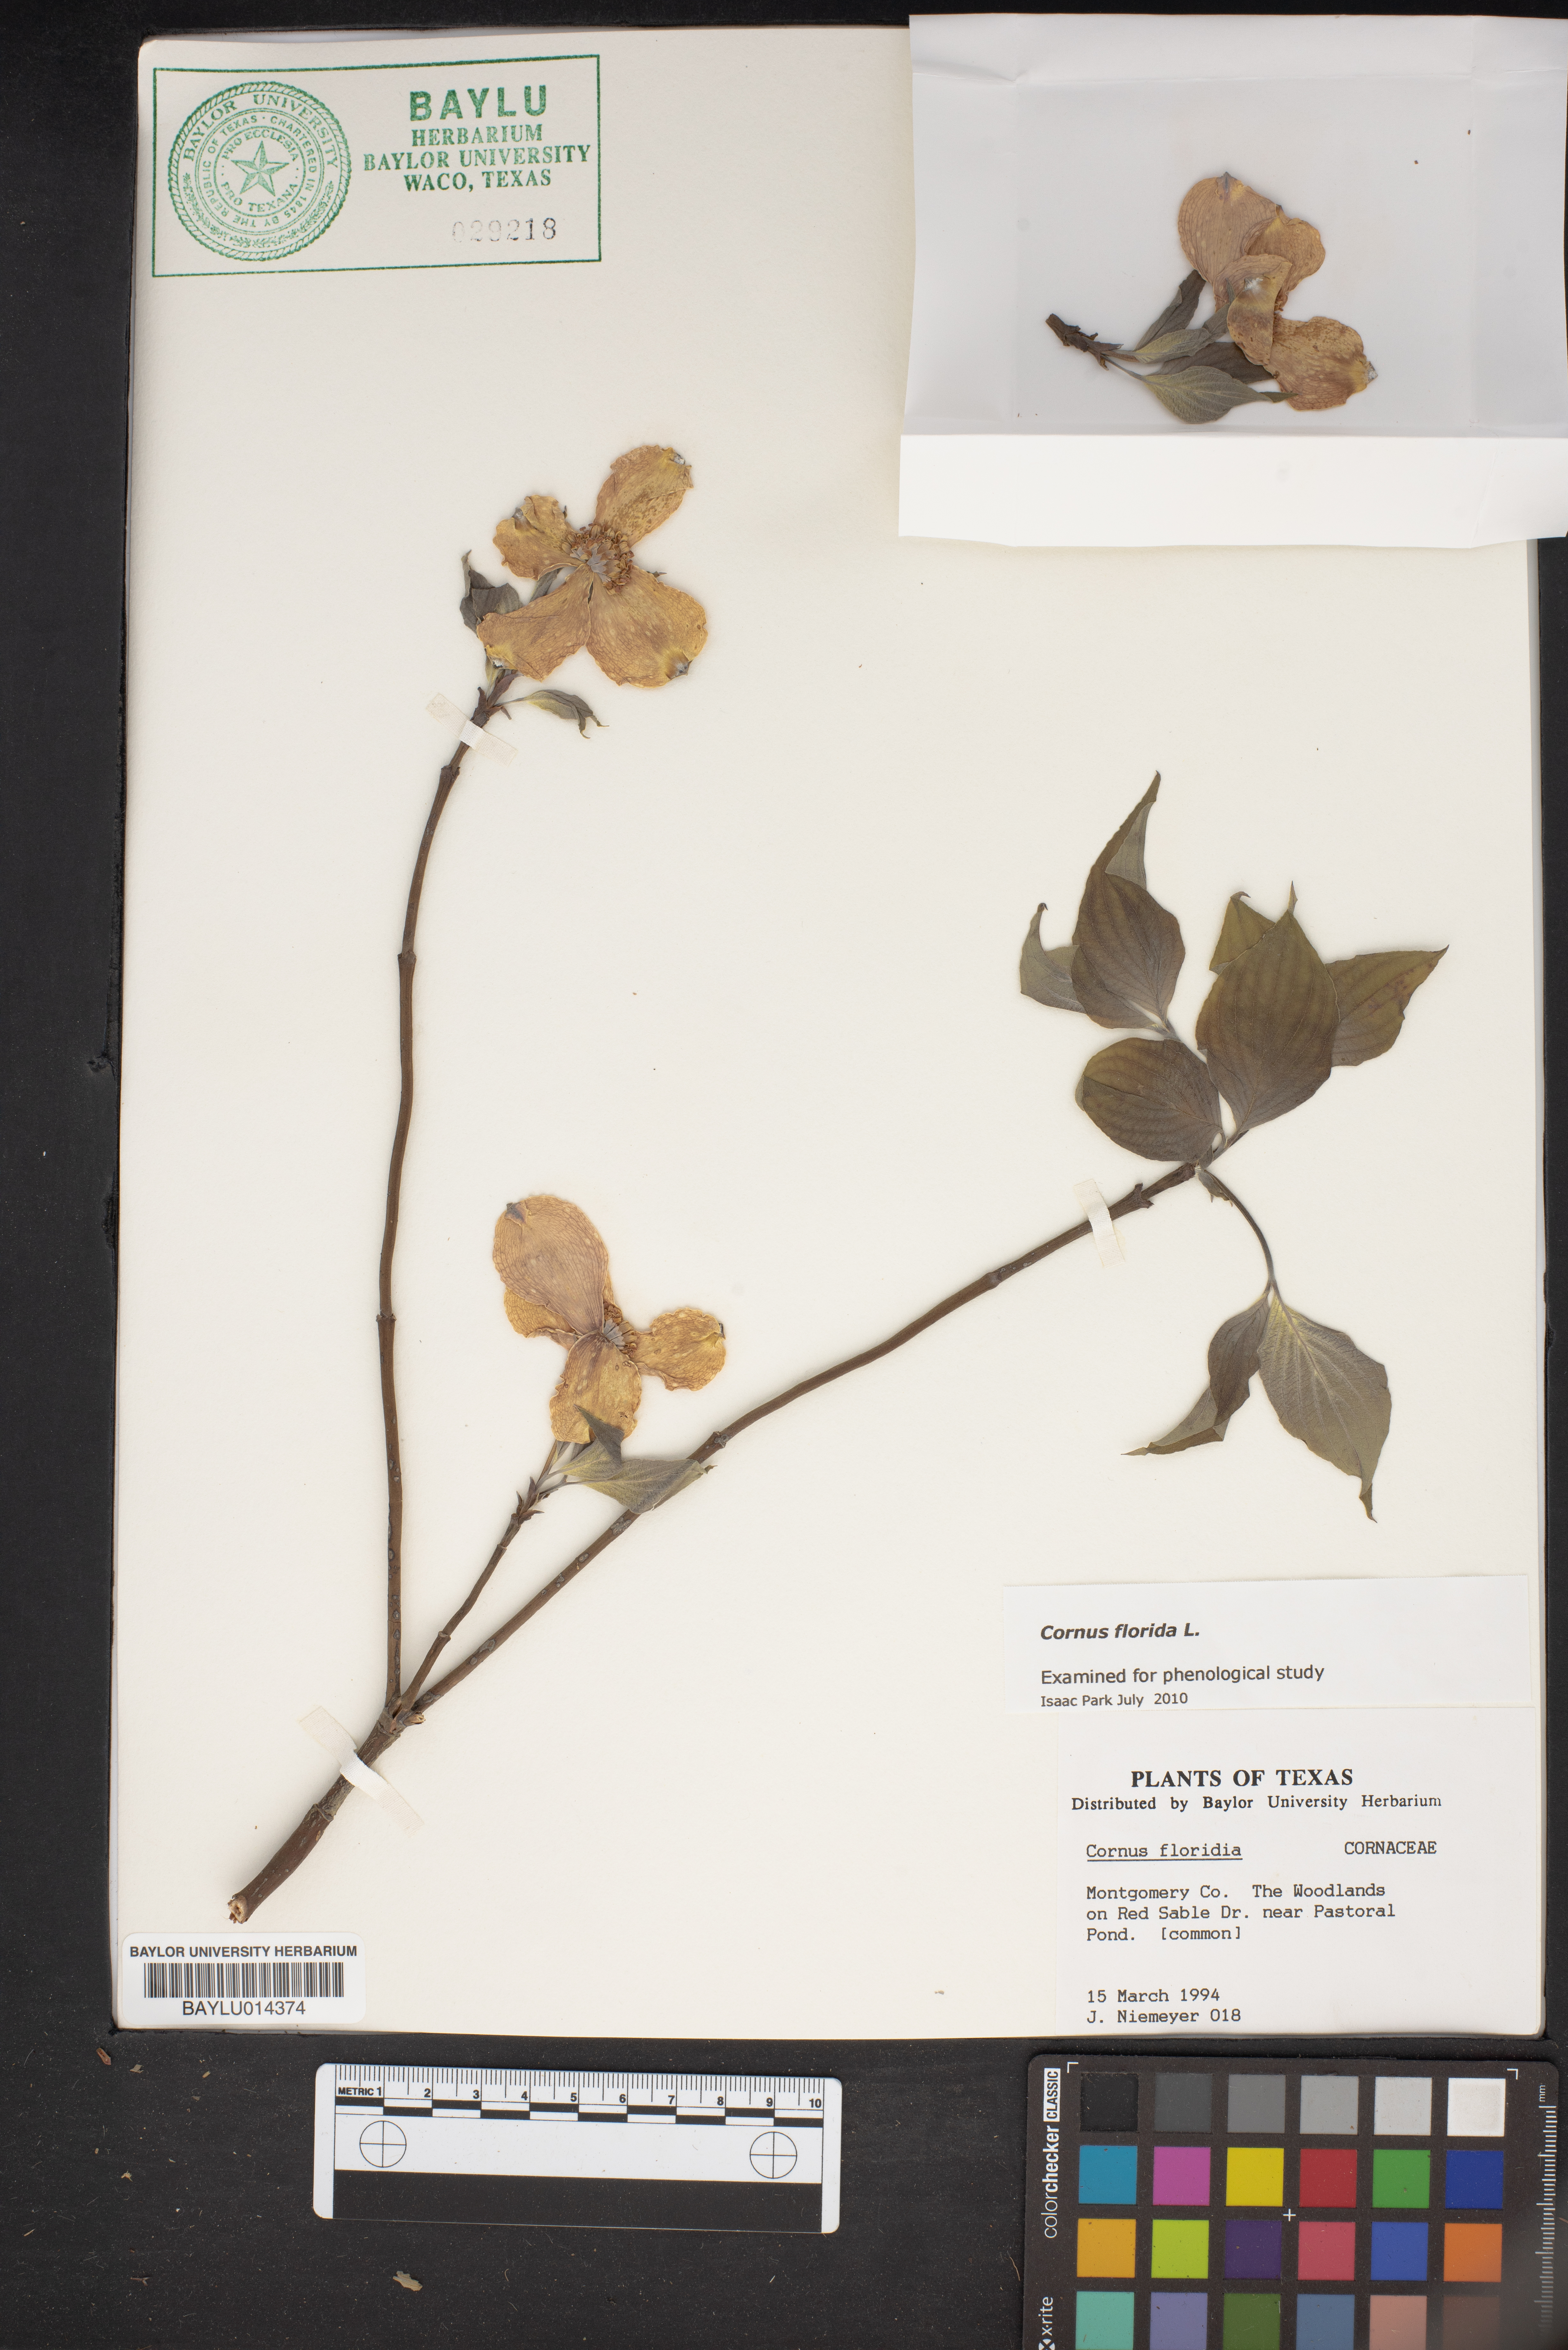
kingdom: Plantae
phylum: Tracheophyta
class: Magnoliopsida
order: Cornales
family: Cornaceae
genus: Cornus
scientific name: Cornus florida
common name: Flowering dogwood
